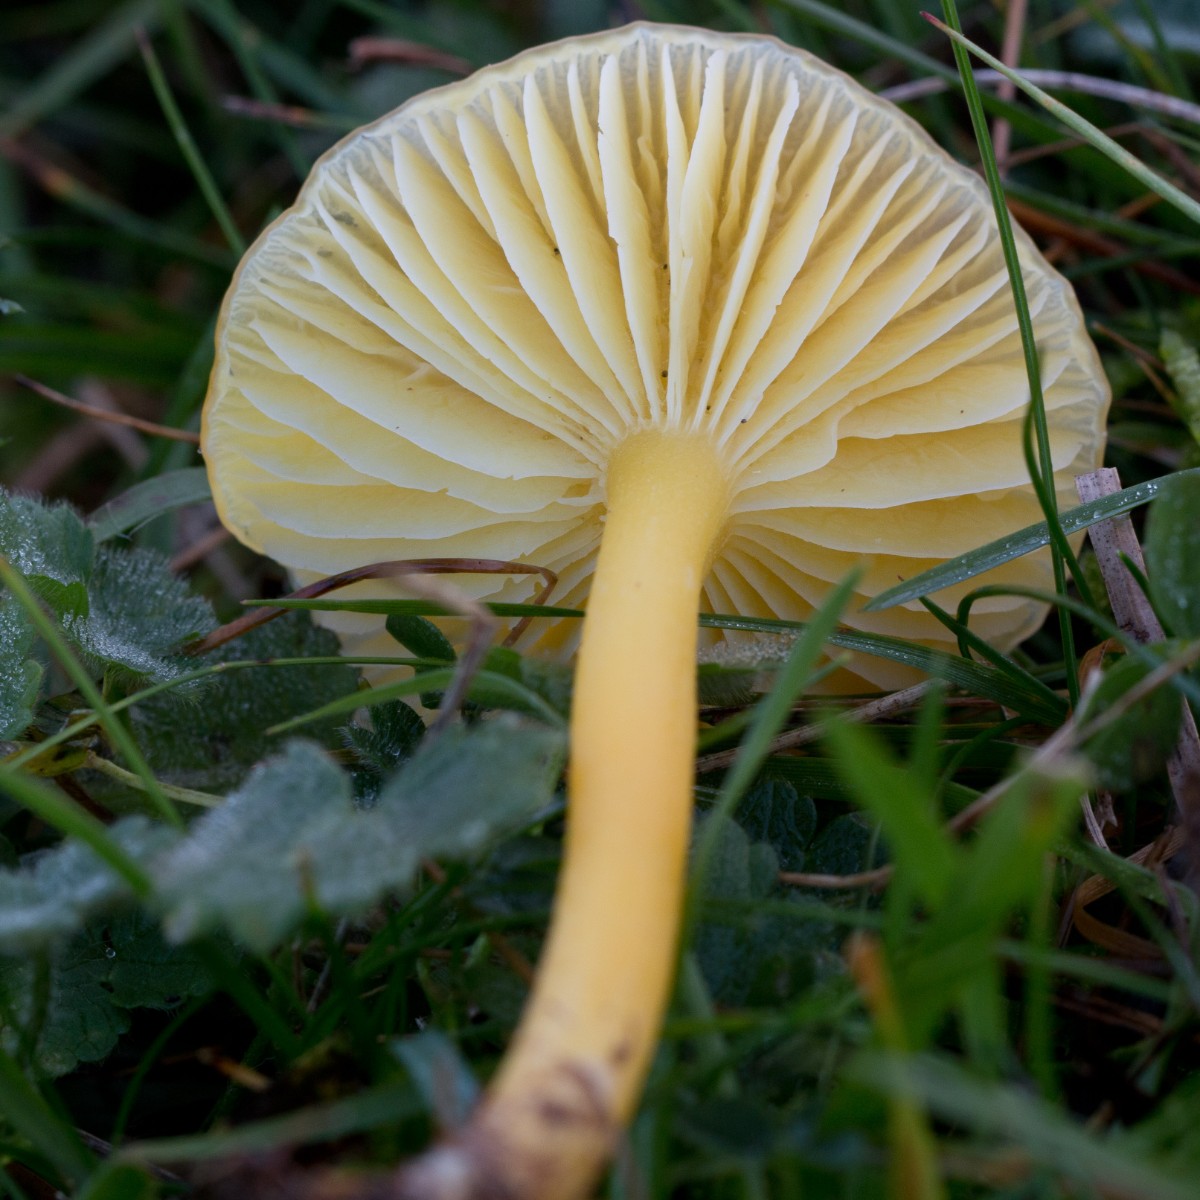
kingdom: Fungi
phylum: Basidiomycota
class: Agaricomycetes
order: Agaricales
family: Hygrophoraceae
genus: Hygrocybe
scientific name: Hygrocybe chlorophana
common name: gul vokshat
